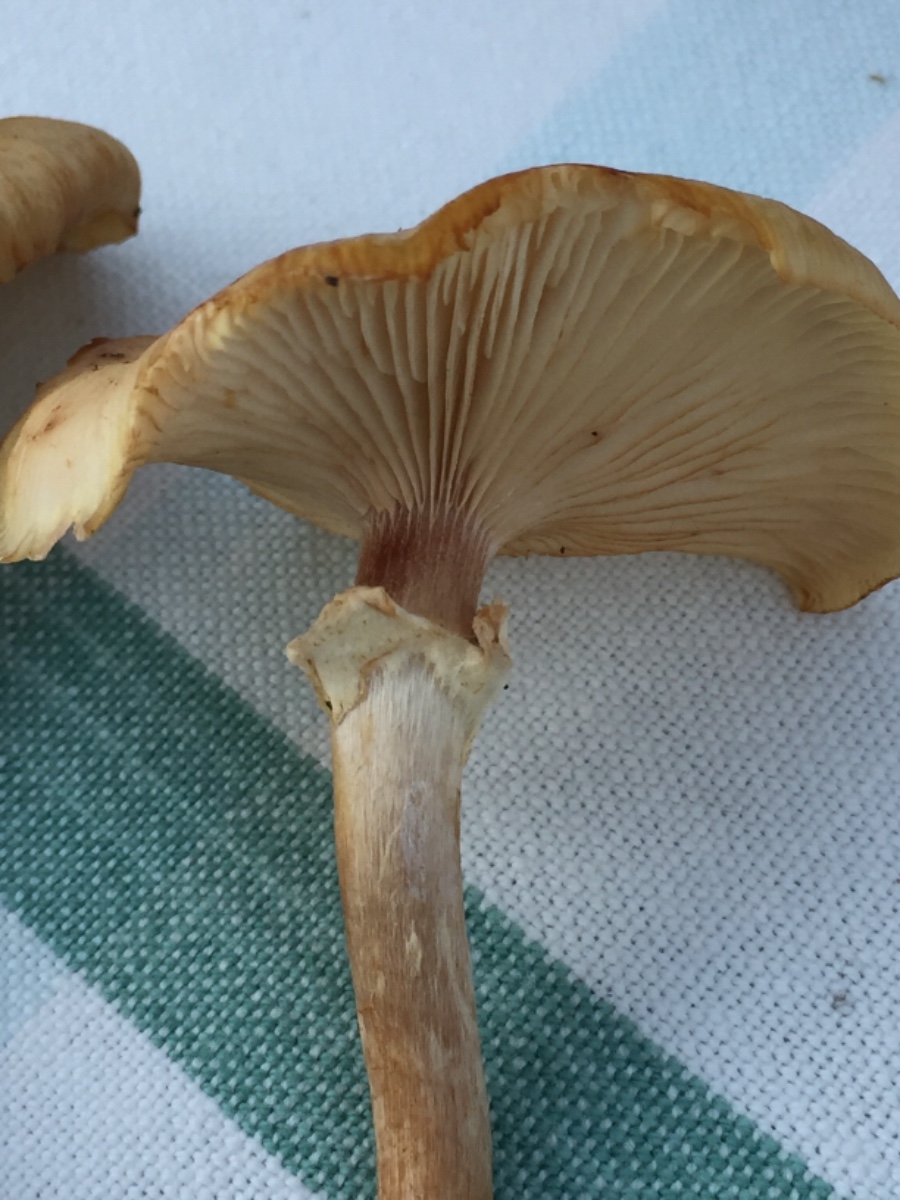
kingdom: Fungi
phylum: Basidiomycota
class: Agaricomycetes
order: Agaricales
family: Physalacriaceae
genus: Armillaria
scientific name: Armillaria mellea
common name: ægte honningsvamp
